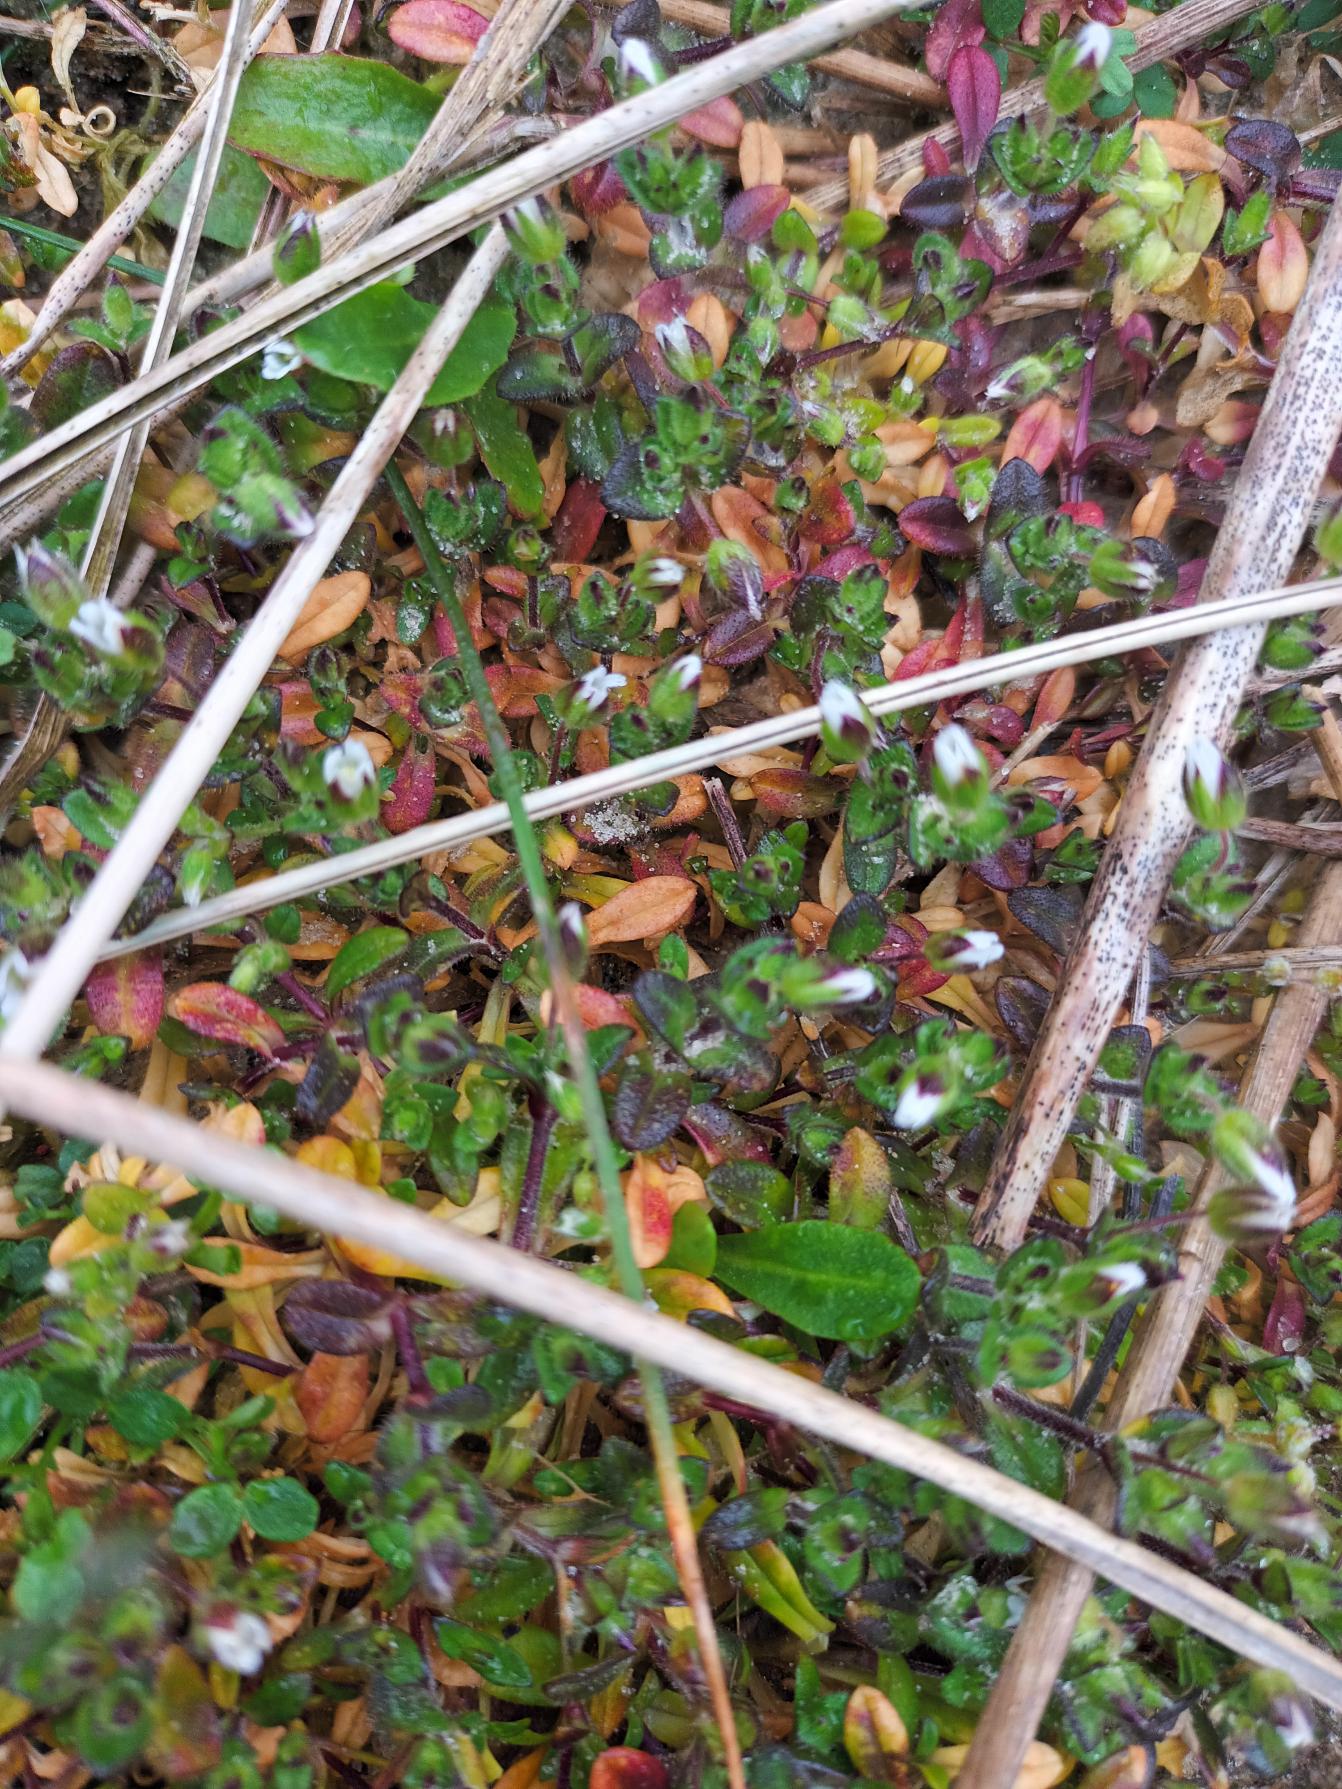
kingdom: Plantae
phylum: Tracheophyta
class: Magnoliopsida
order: Caryophyllales
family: Caryophyllaceae
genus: Cerastium
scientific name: Cerastium diffusum
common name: Firehannet hønsetarm
